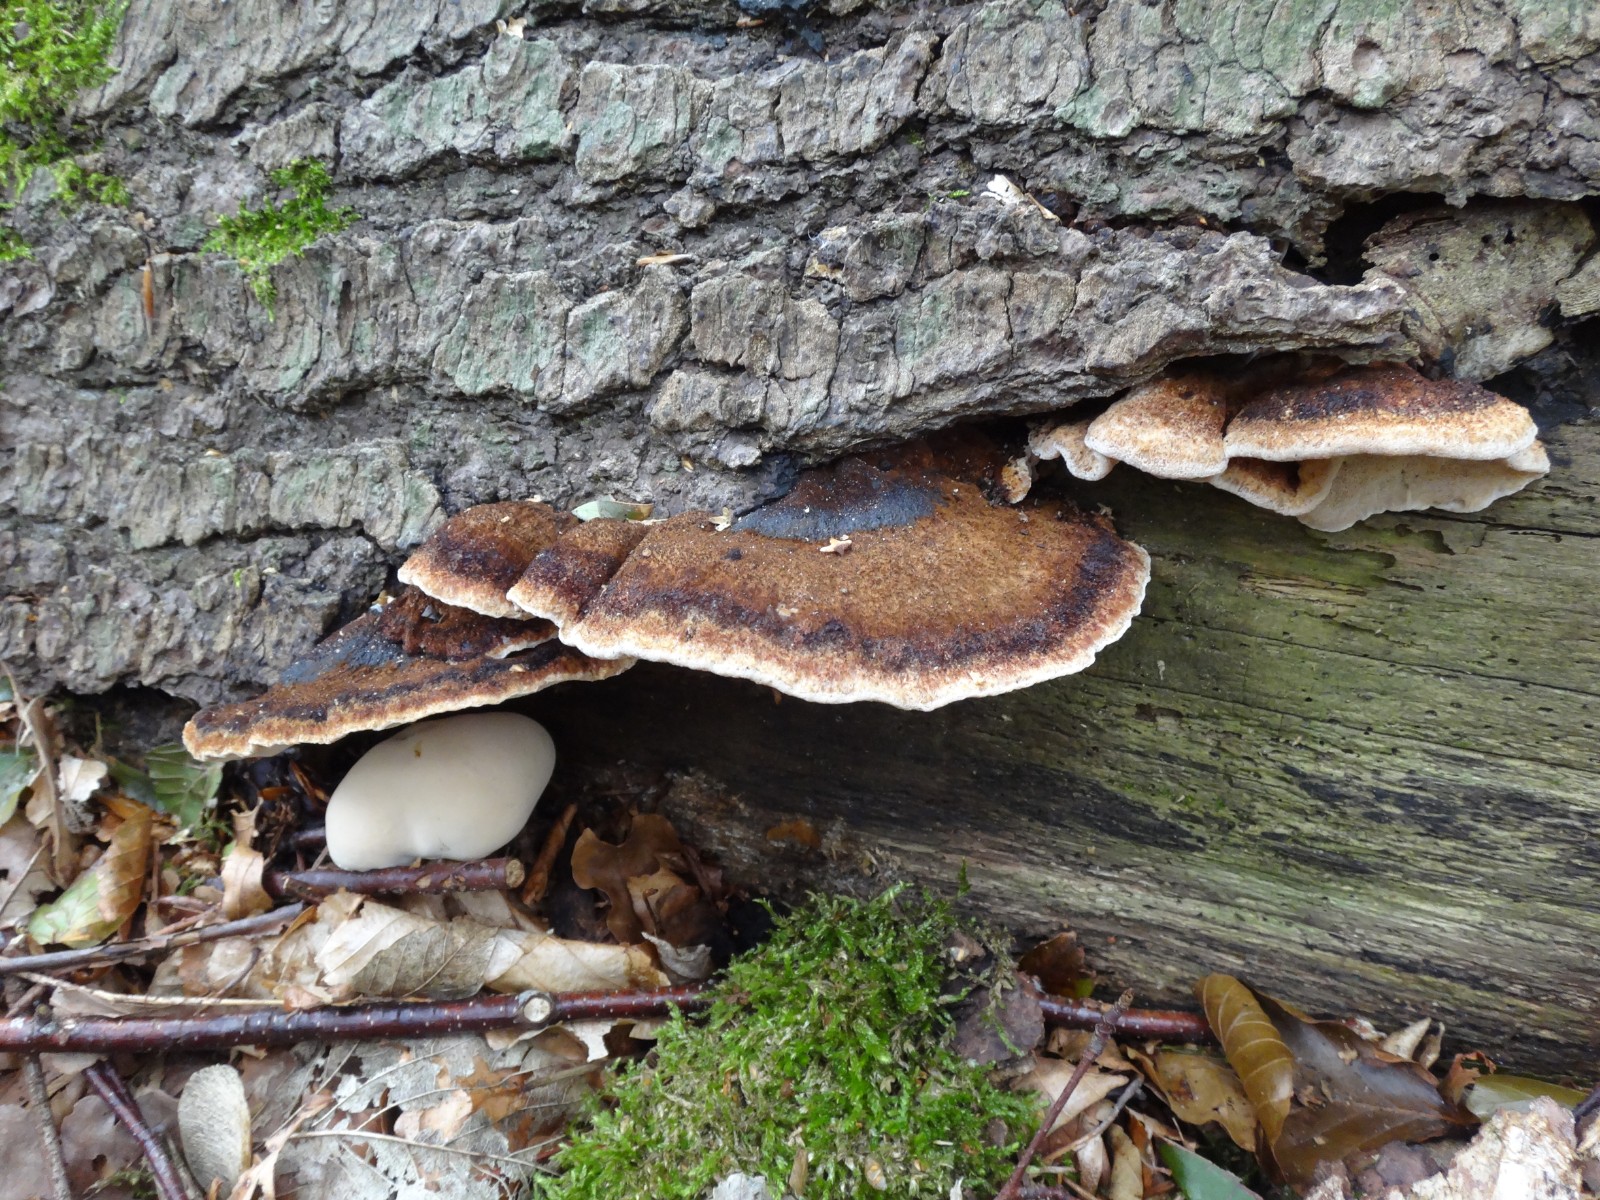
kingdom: Fungi
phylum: Basidiomycota
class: Agaricomycetes
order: Polyporales
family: Ischnodermataceae
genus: Ischnoderma
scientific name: Ischnoderma benzoinum
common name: gran-tjæreporesvamp
